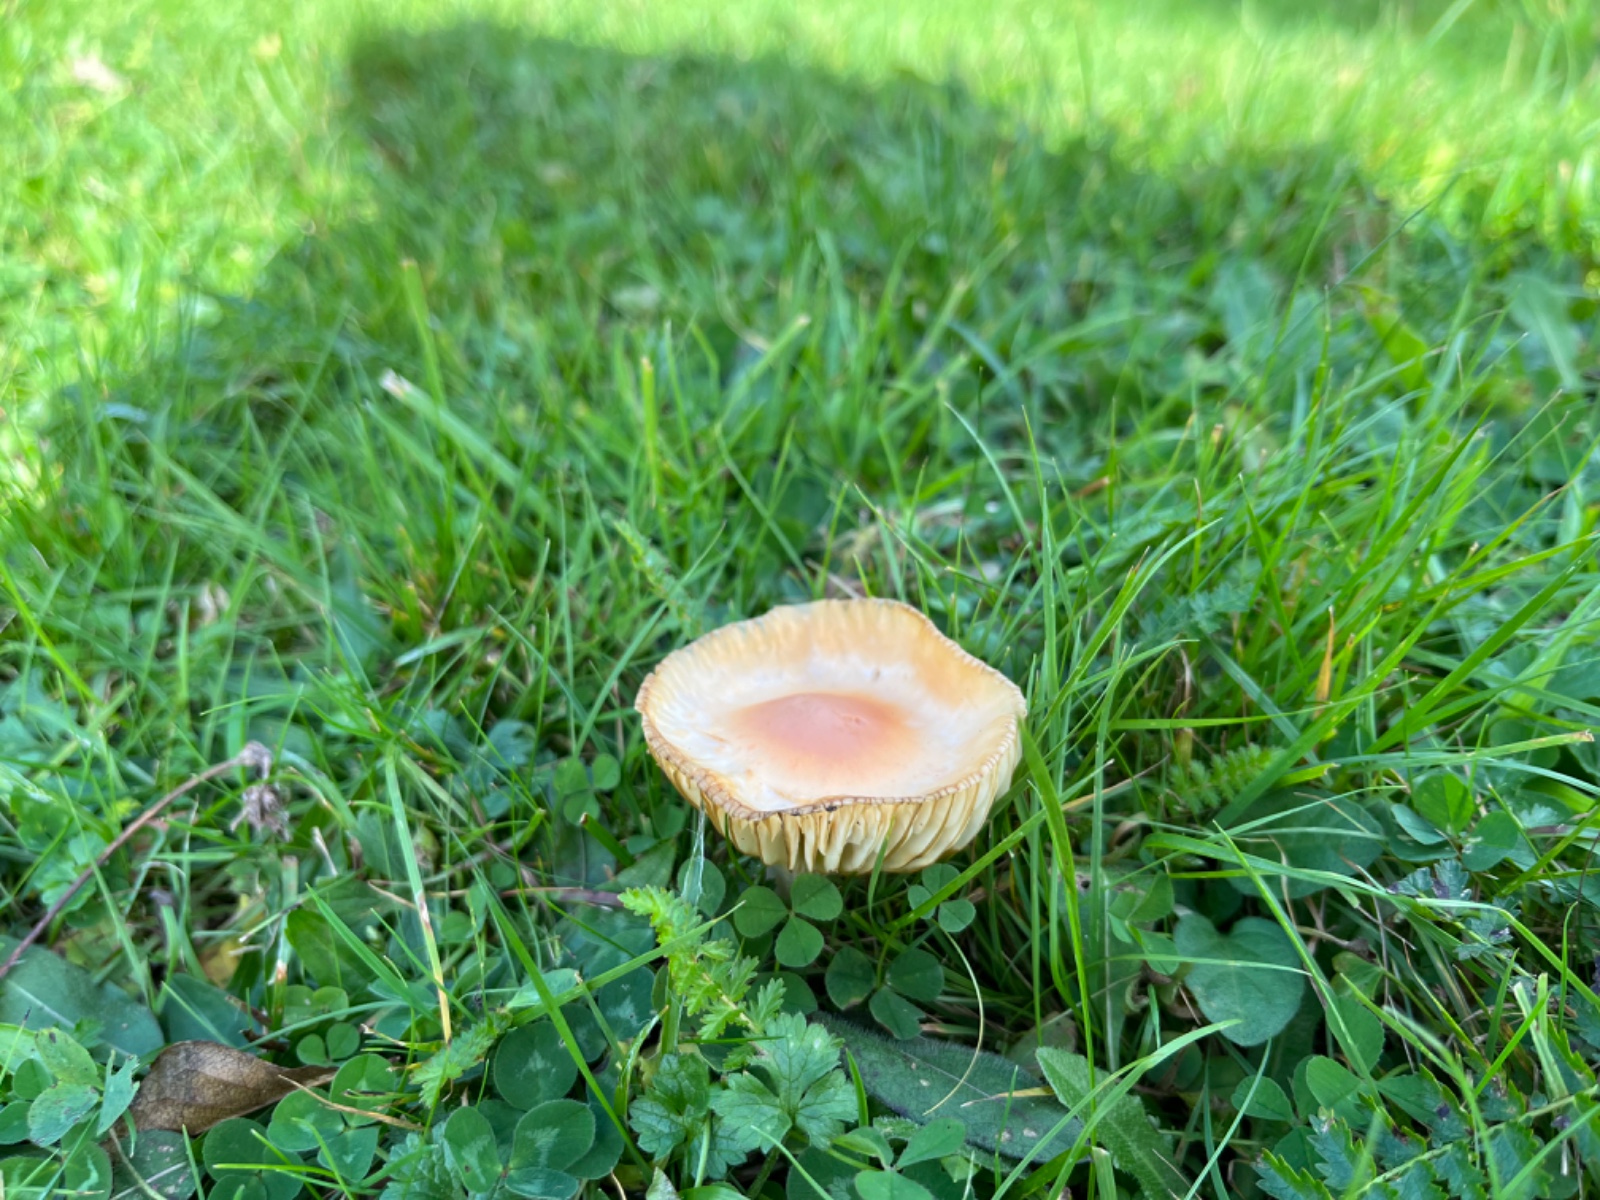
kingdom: Fungi
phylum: Basidiomycota
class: Agaricomycetes
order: Agaricales
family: Hygrophoraceae
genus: Cuphophyllus
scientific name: Cuphophyllus pratensis
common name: eng-vokshat
